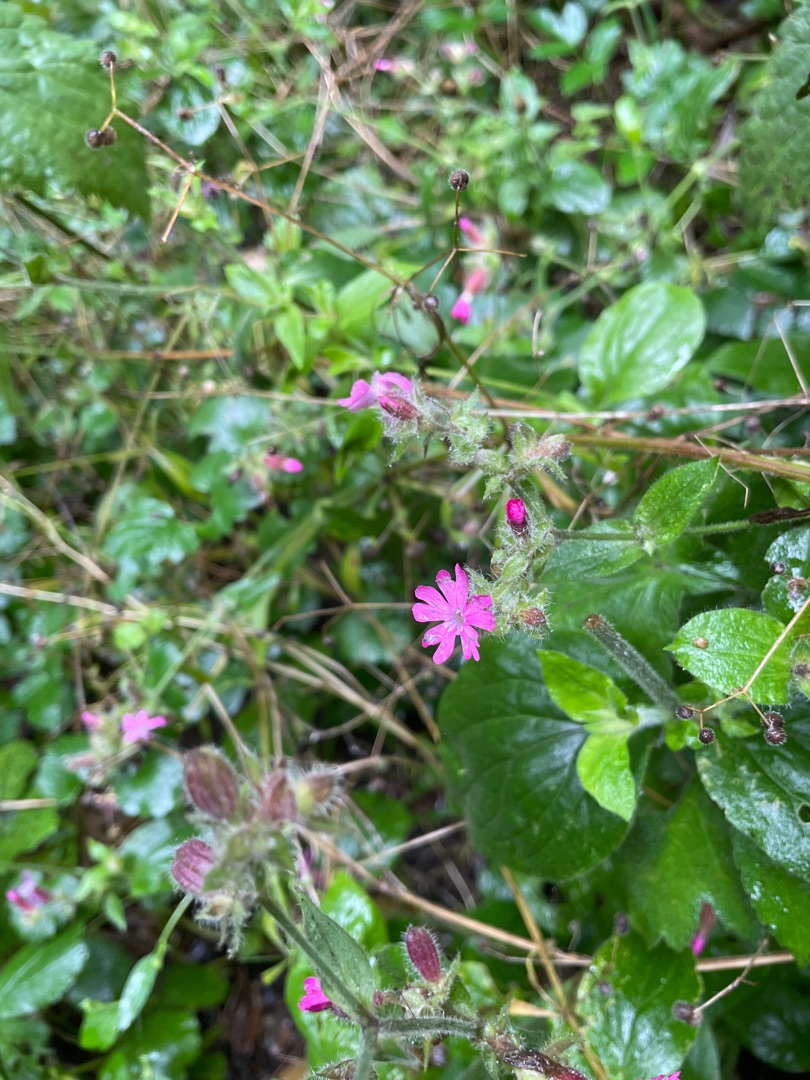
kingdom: Plantae
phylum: Tracheophyta
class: Magnoliopsida
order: Caryophyllales
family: Caryophyllaceae
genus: Silene
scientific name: Silene dioica
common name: Dagpragtstjerne
